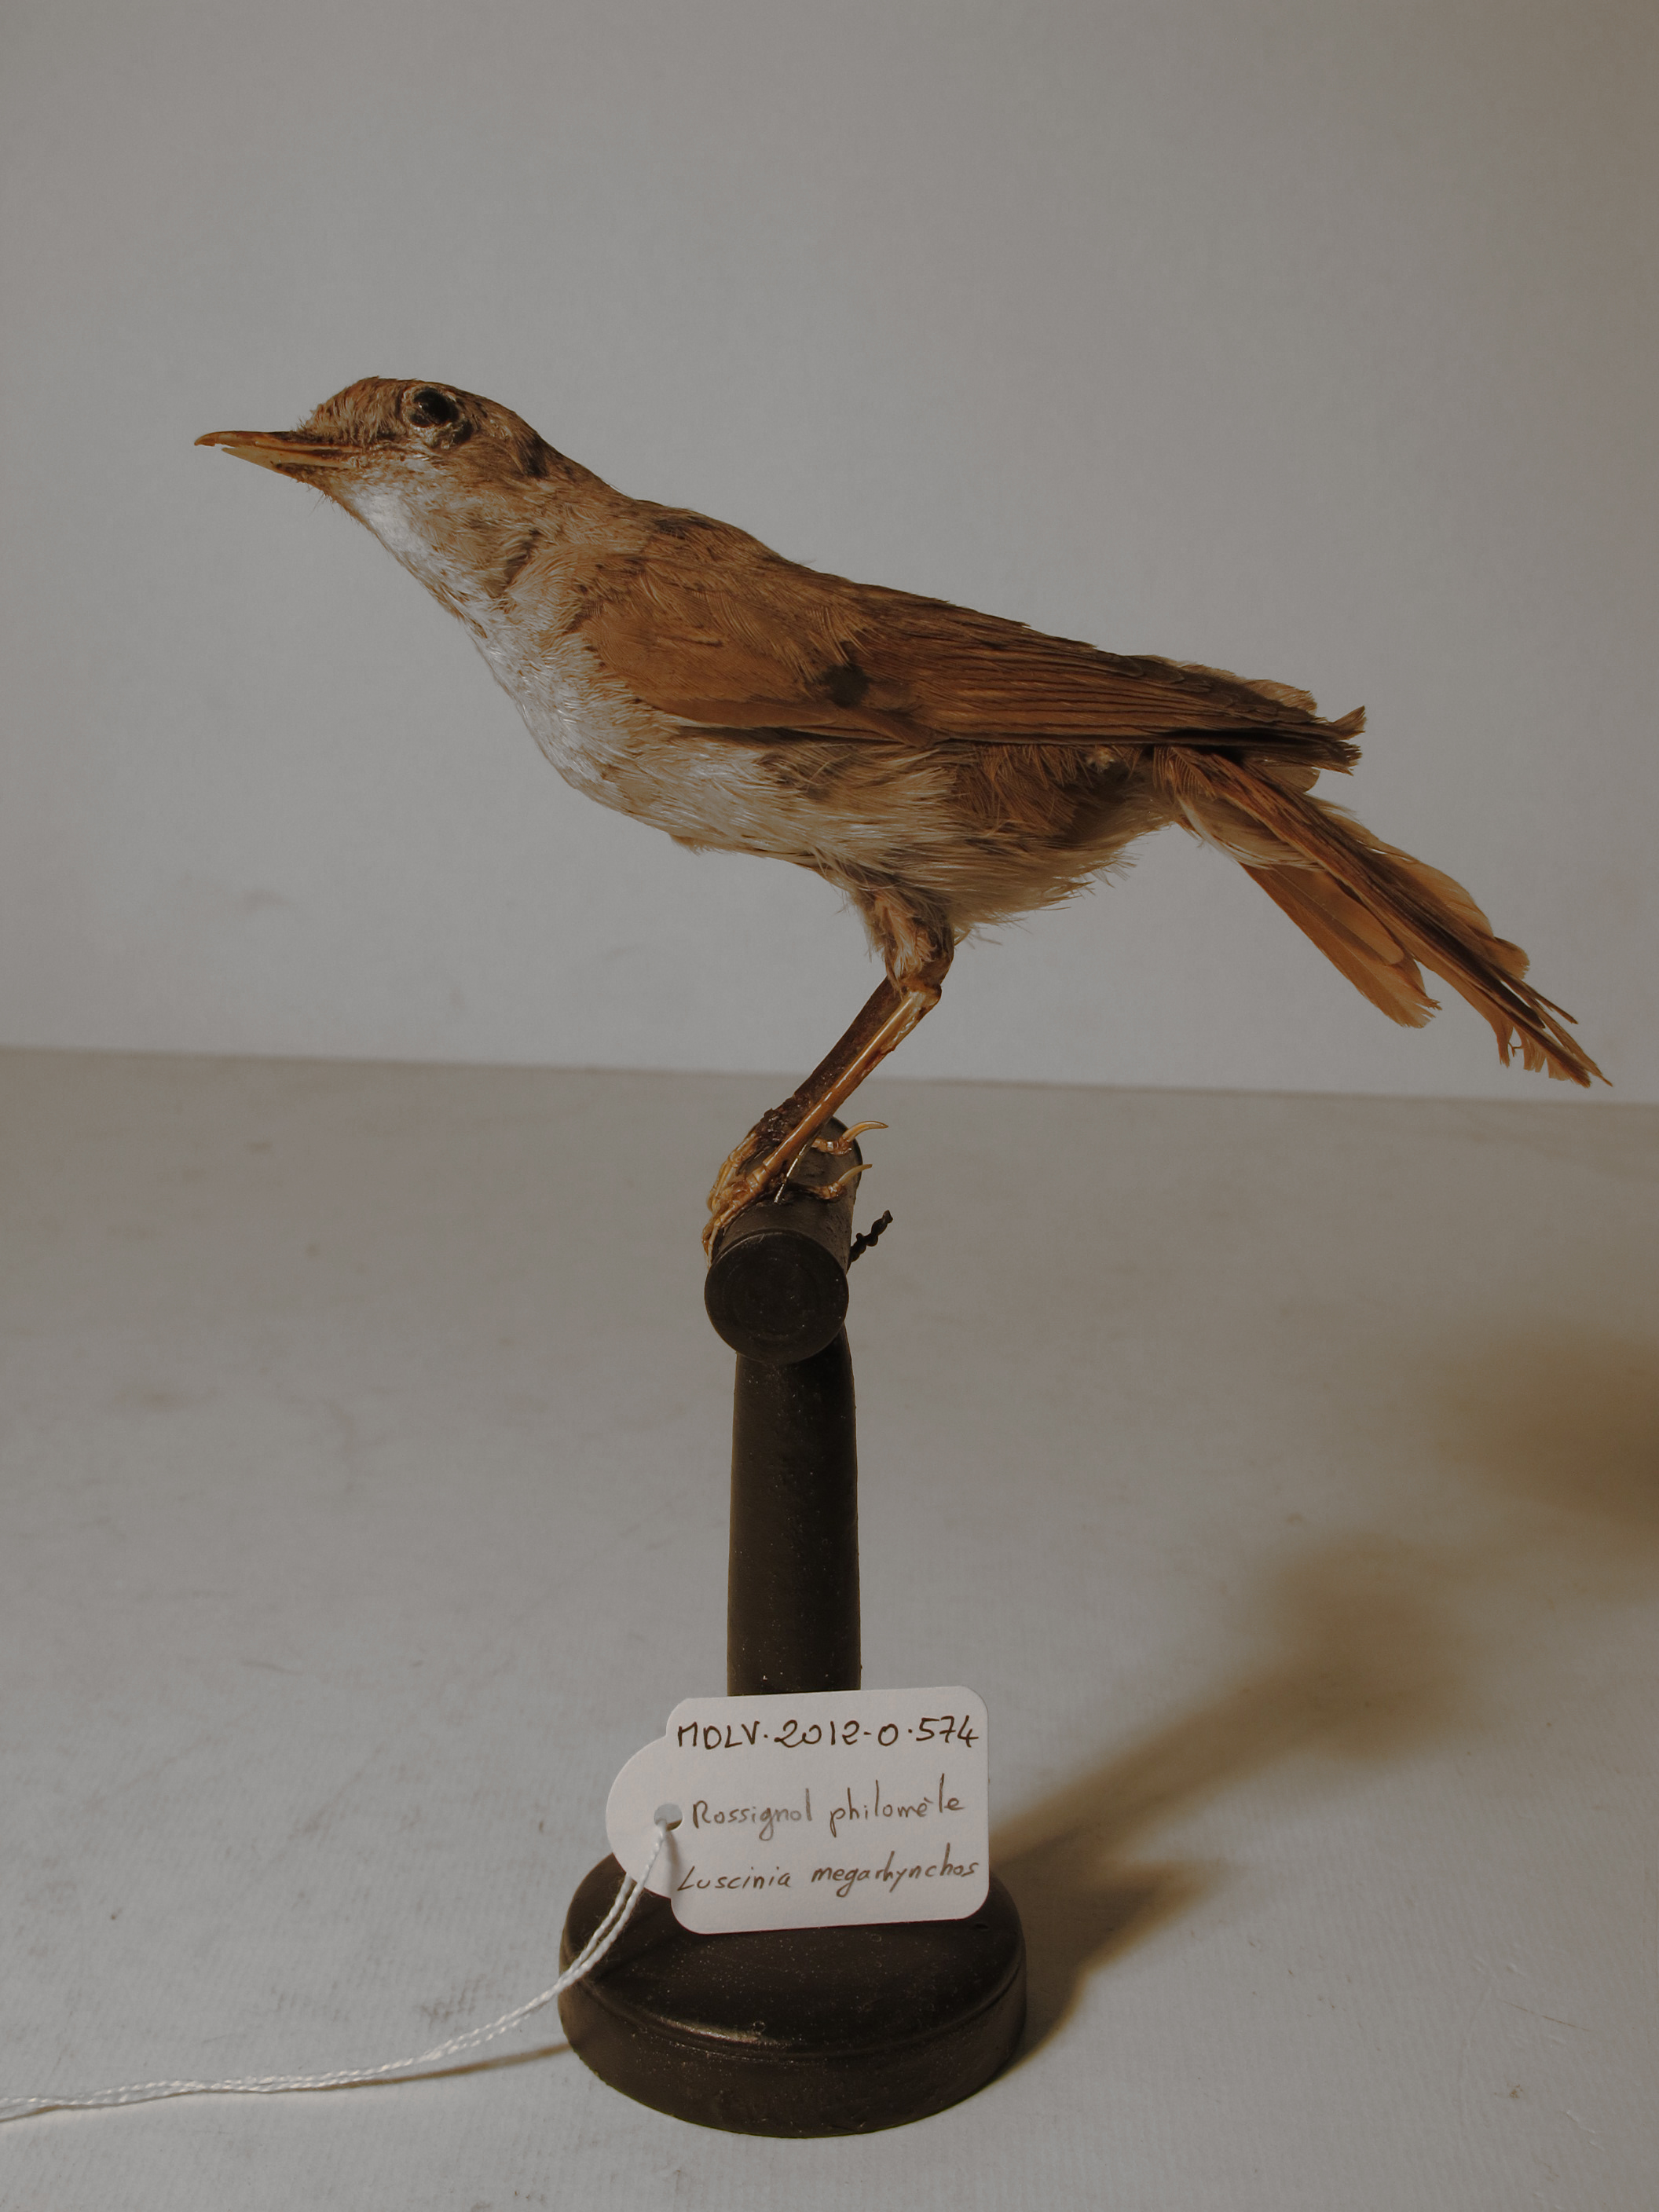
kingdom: Animalia
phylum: Chordata
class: Aves
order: Passeriformes
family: Muscicapidae
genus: Luscinia
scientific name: Luscinia megarhynchos
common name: Common Nightingale
